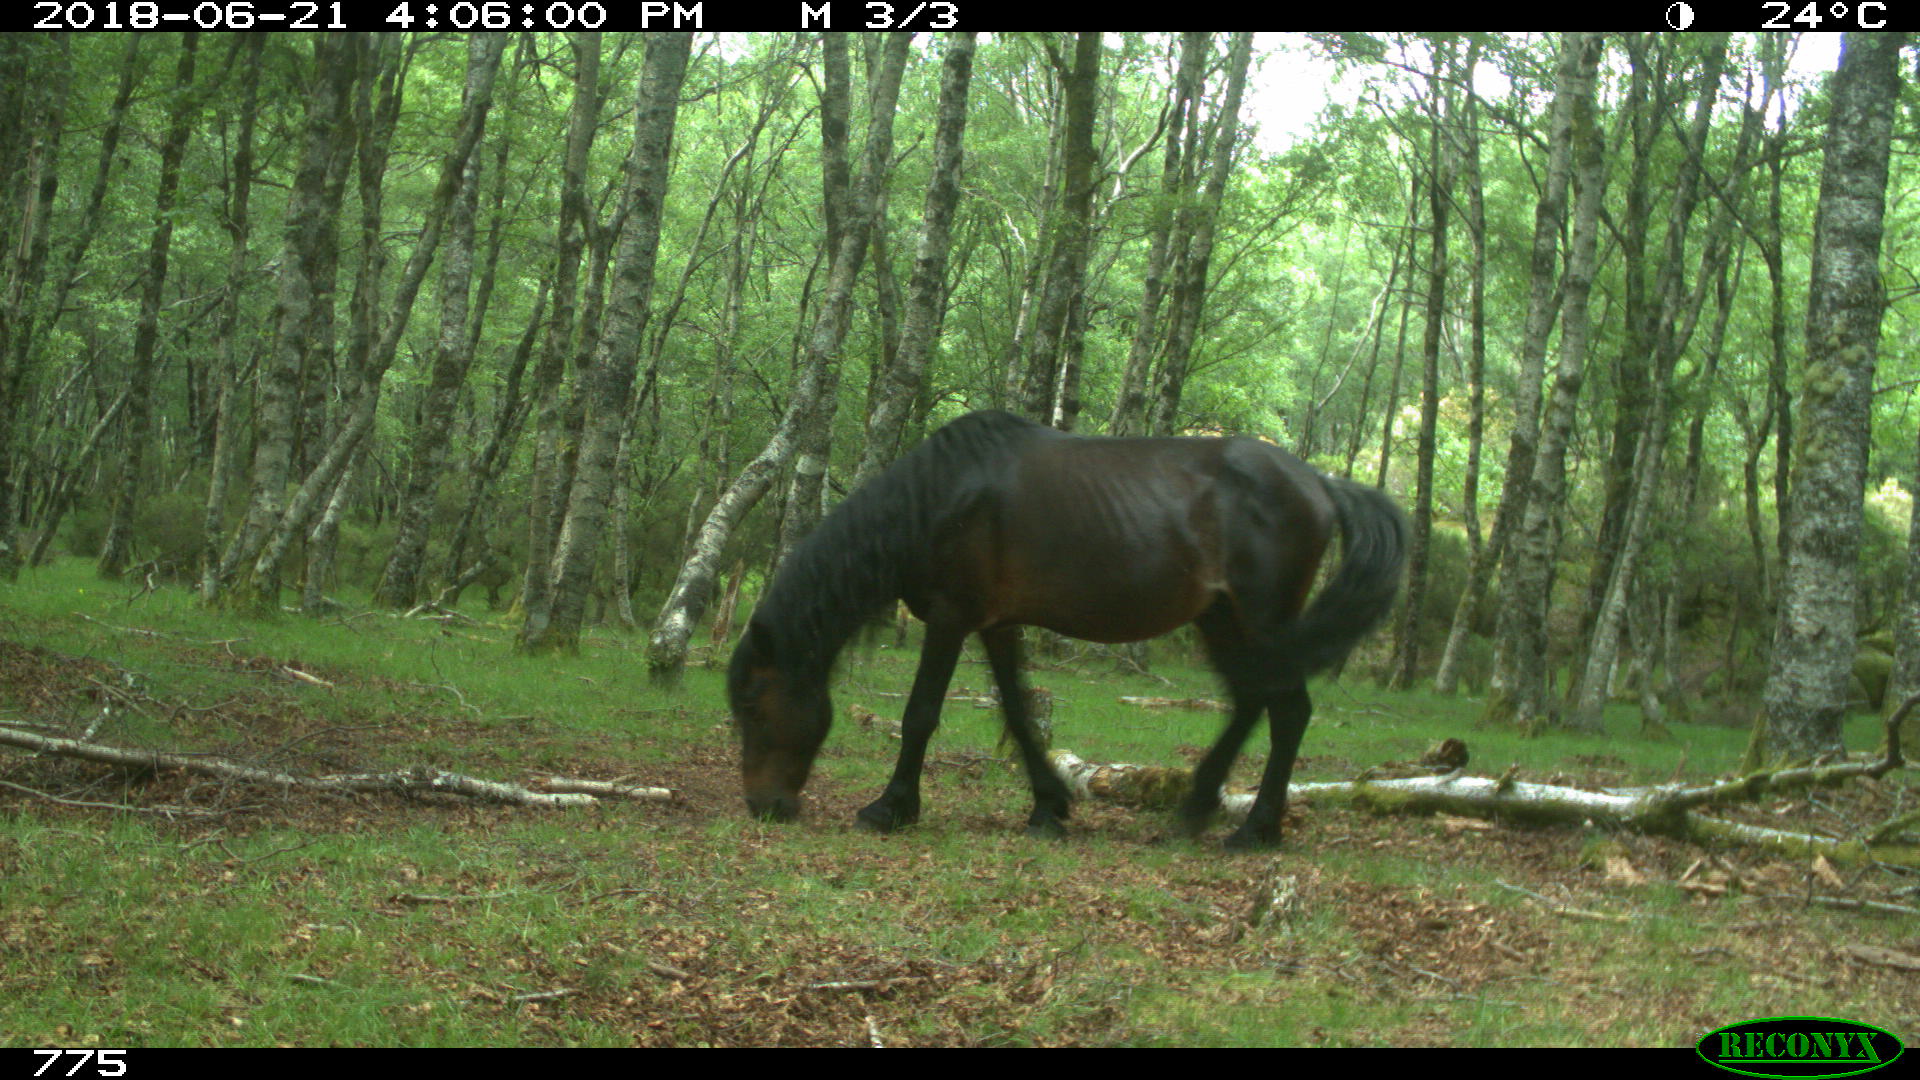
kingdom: Animalia
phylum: Chordata
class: Mammalia
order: Perissodactyla
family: Equidae
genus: Equus
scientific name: Equus caballus
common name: Horse
